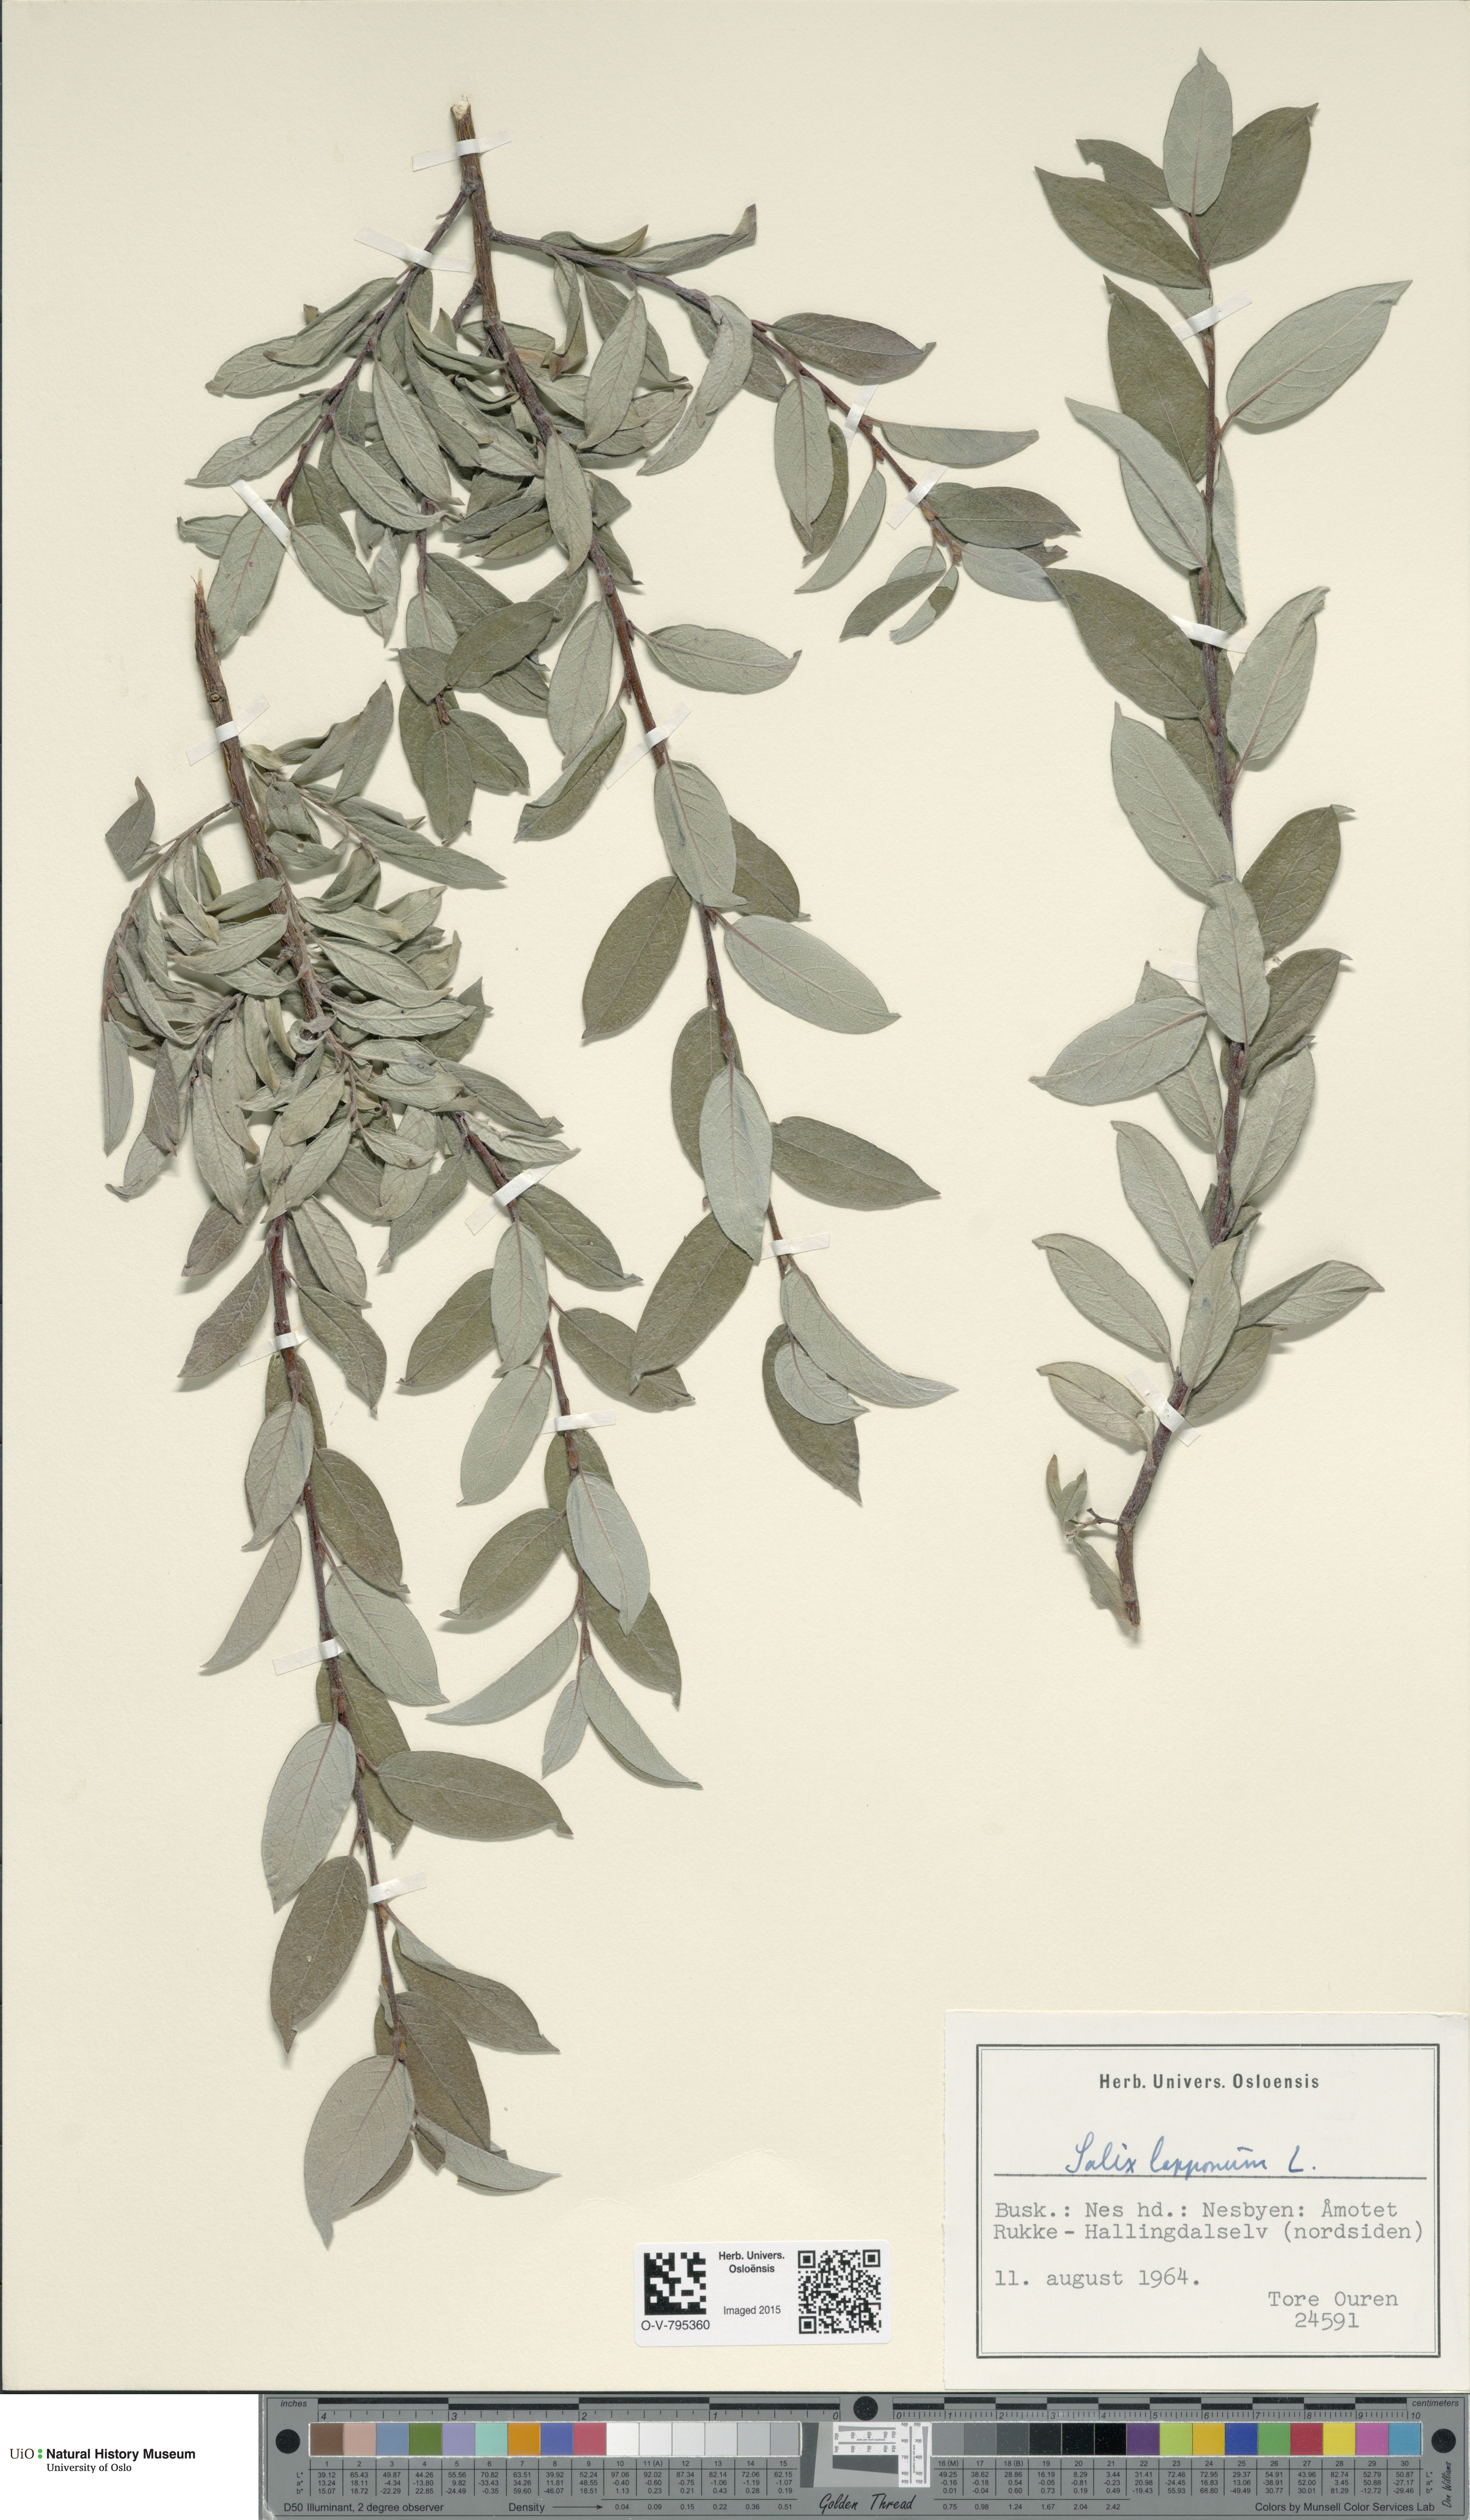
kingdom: Plantae
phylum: Tracheophyta
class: Magnoliopsida
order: Malpighiales
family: Salicaceae
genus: Salix
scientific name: Salix lapponum
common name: Downy willow
